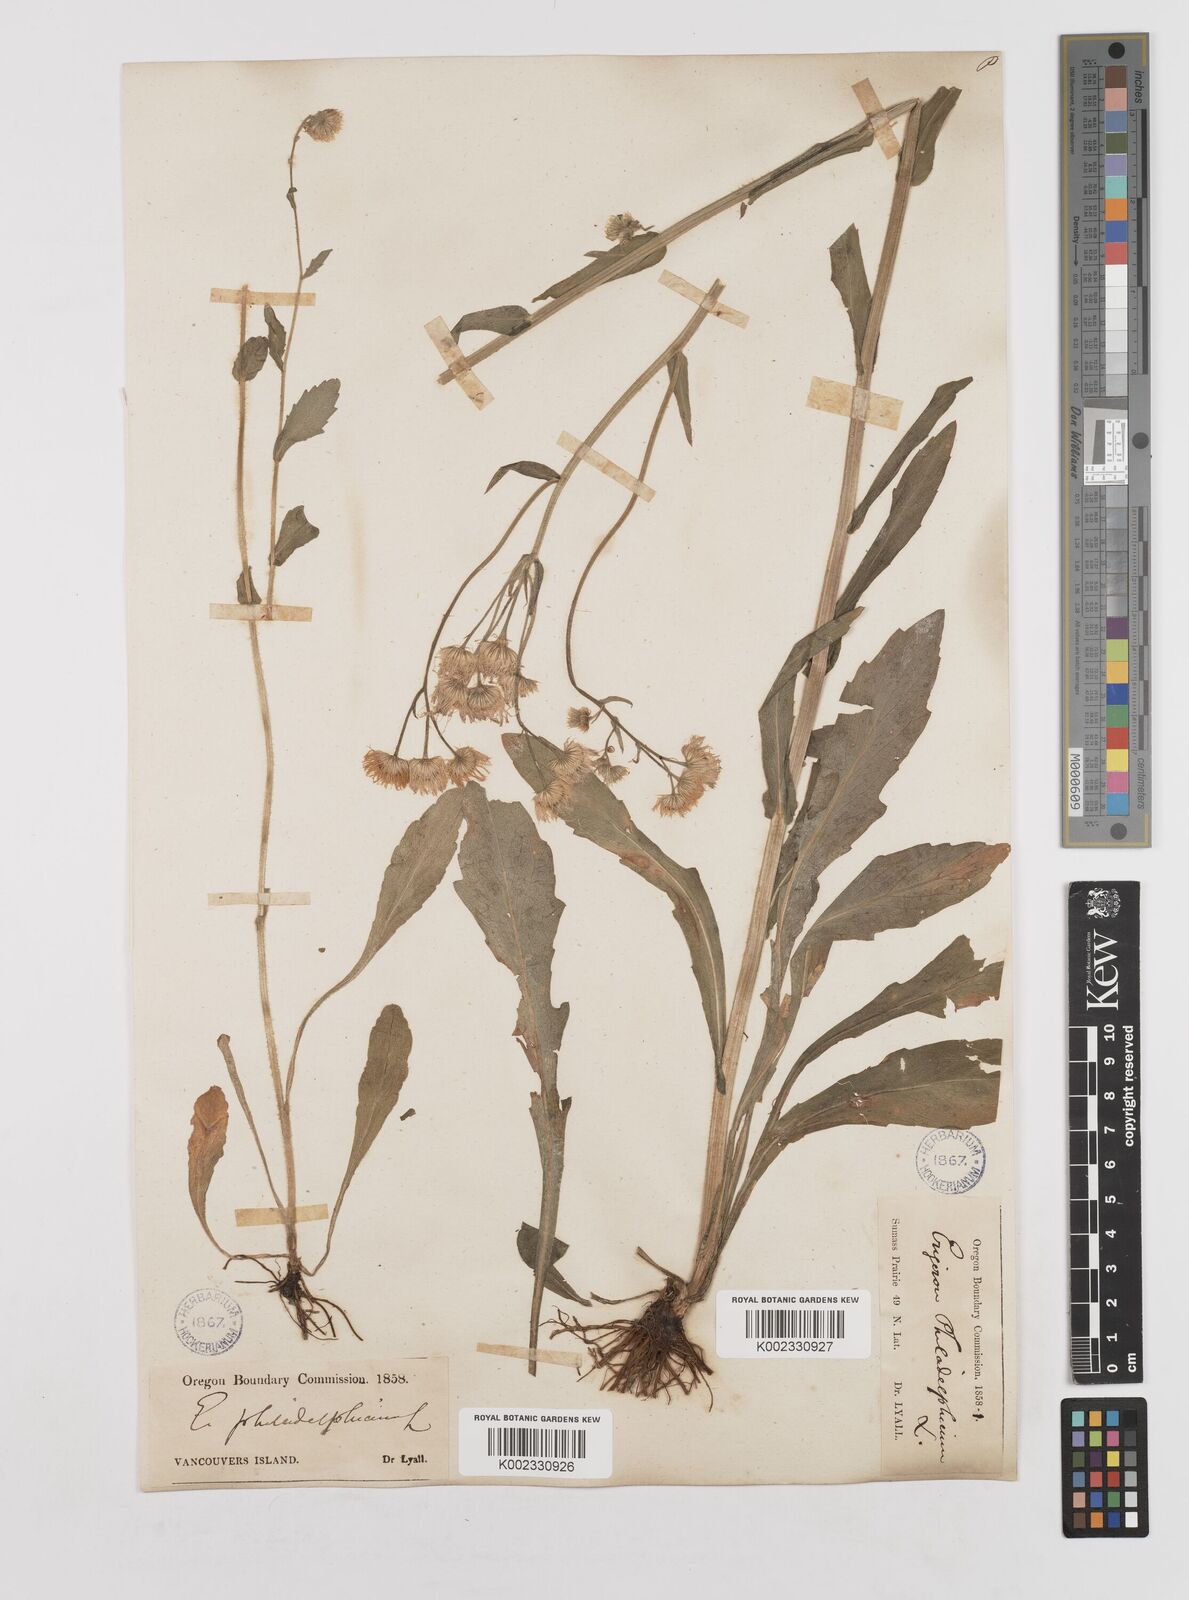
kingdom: Plantae
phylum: Tracheophyta
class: Magnoliopsida
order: Asterales
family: Asteraceae
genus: Erigeron
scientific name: Erigeron philadelphicus
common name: Robin's-plantain
